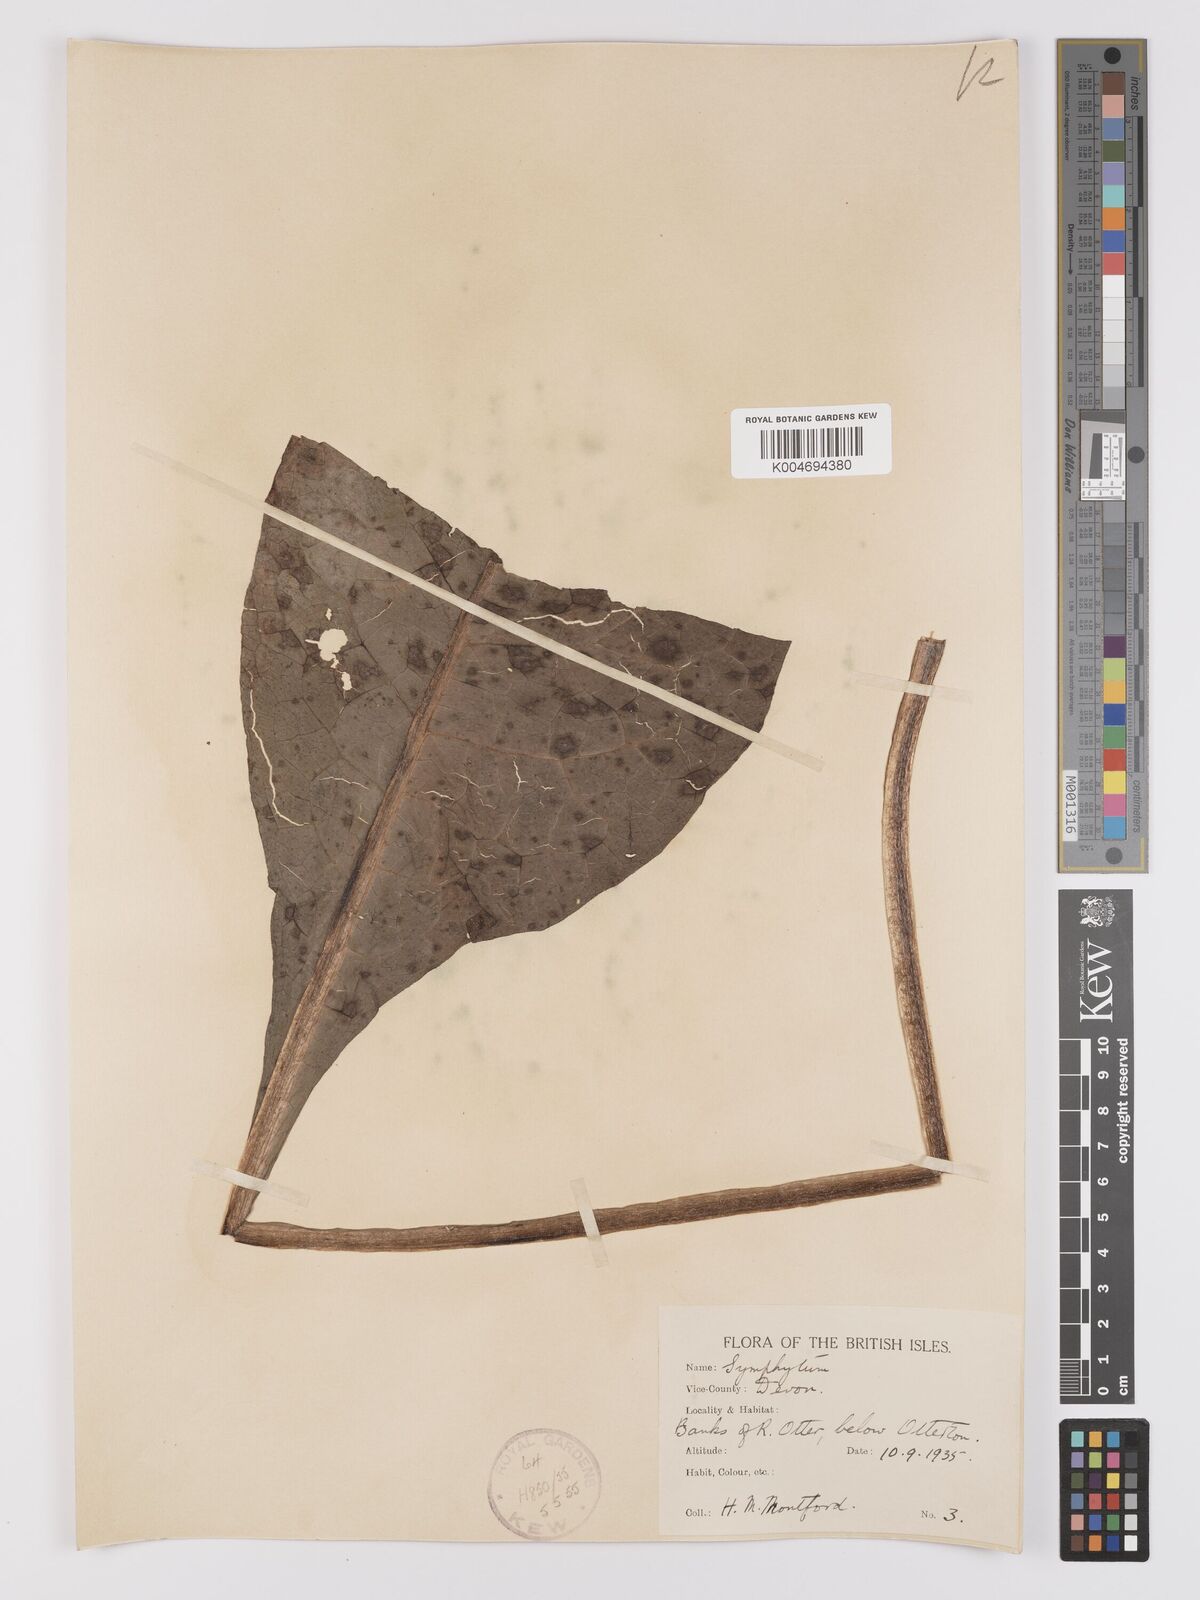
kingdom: Plantae
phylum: Tracheophyta
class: Magnoliopsida
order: Boraginales
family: Boraginaceae
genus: Symphytum
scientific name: Symphytum officinale
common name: Common comfrey
